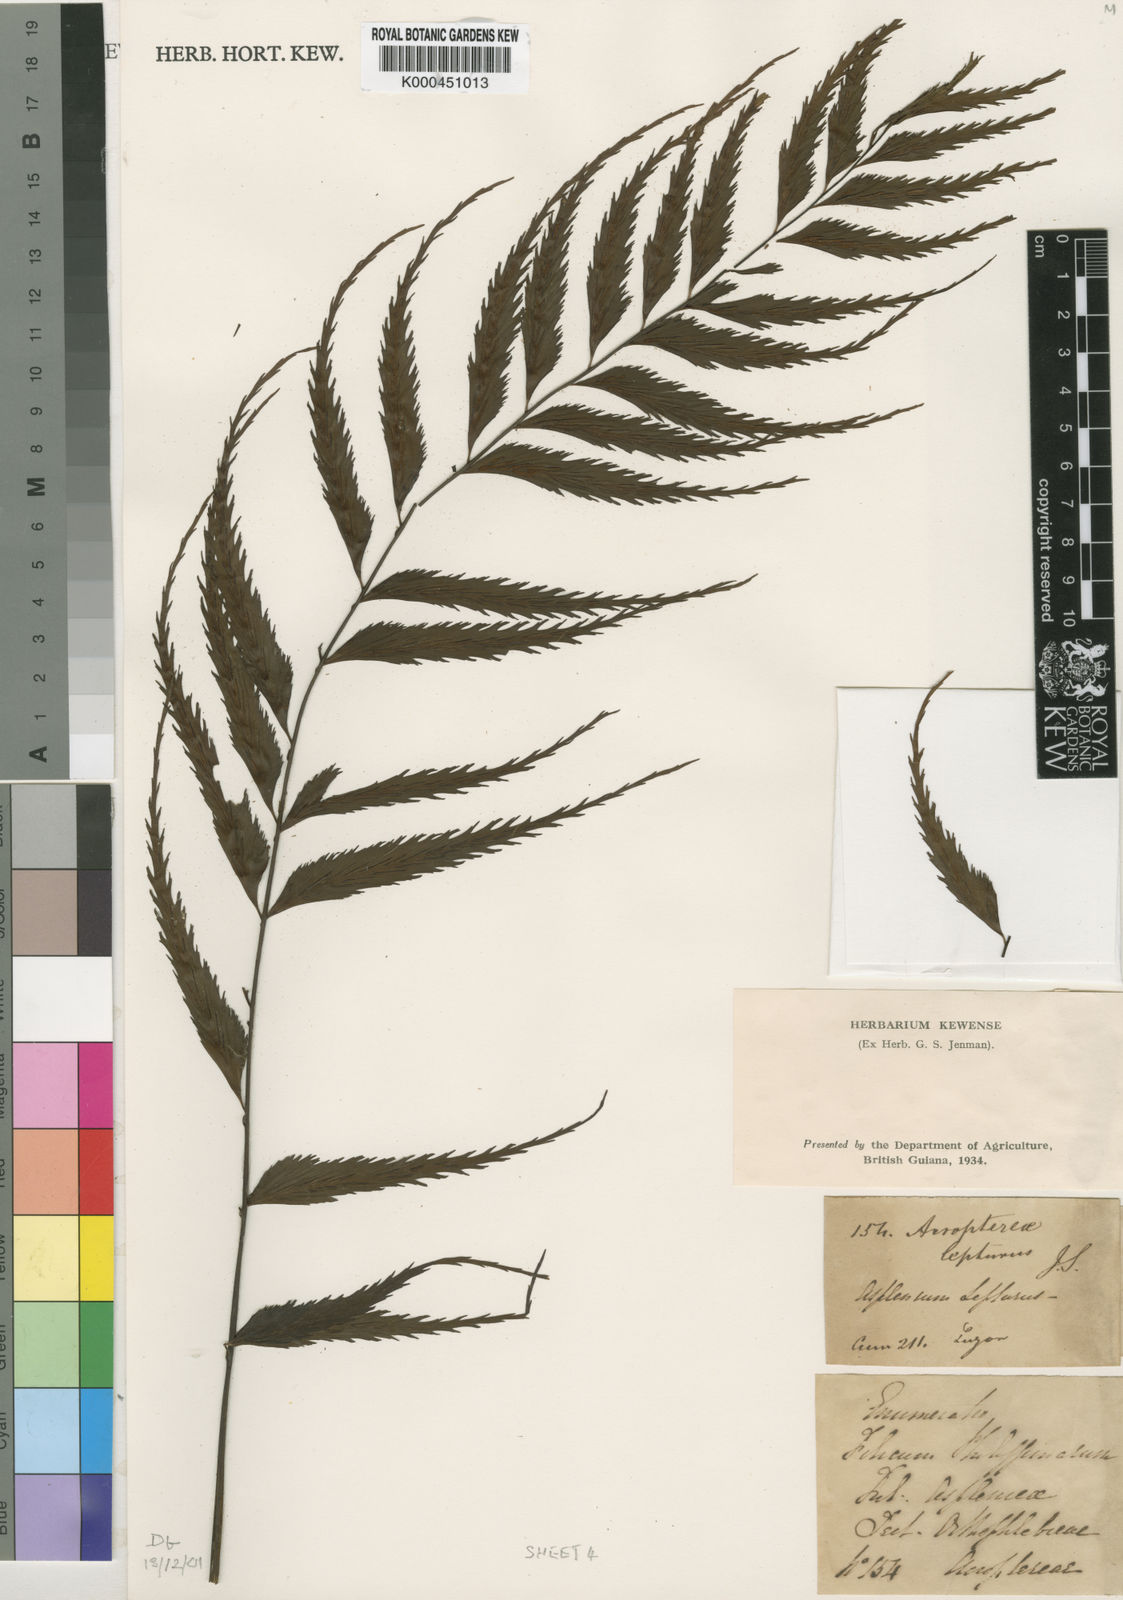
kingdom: Plantae
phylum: Tracheophyta
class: Polypodiopsida
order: Polypodiales
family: Aspleniaceae
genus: Asplenium
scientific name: Asplenium lepturus
